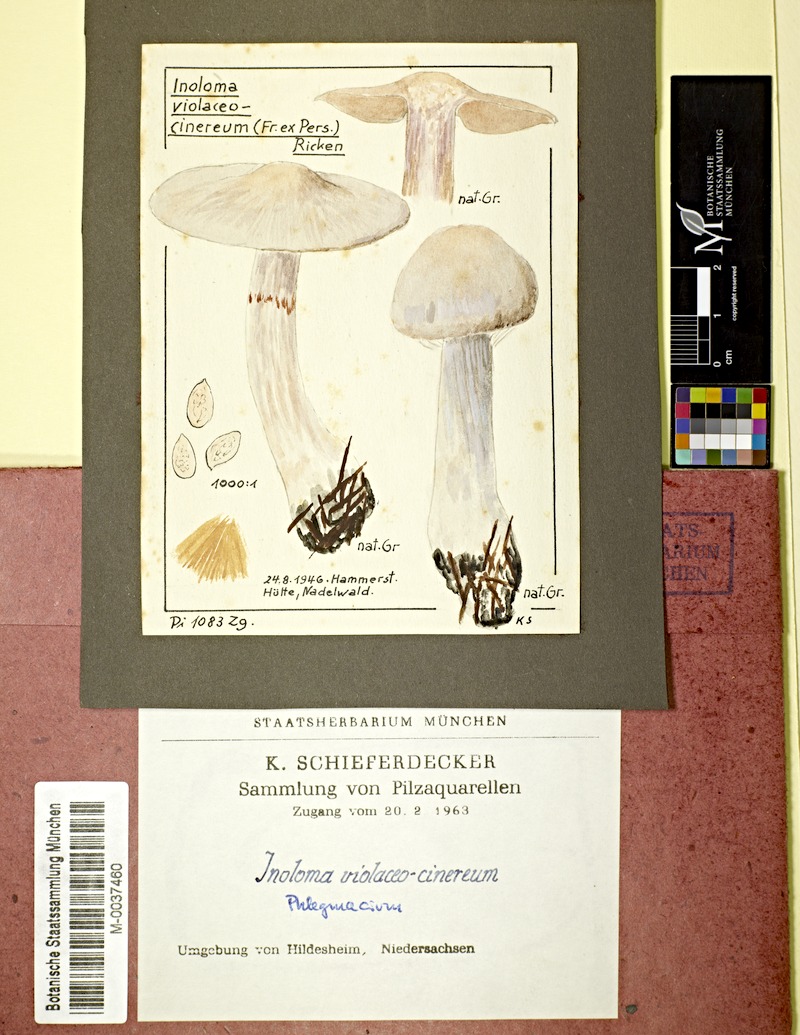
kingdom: Fungi
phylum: Basidiomycota
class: Agaricomycetes
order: Agaricales
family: Cortinariaceae
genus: Cortinarius
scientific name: Cortinarius violaceocinereus
